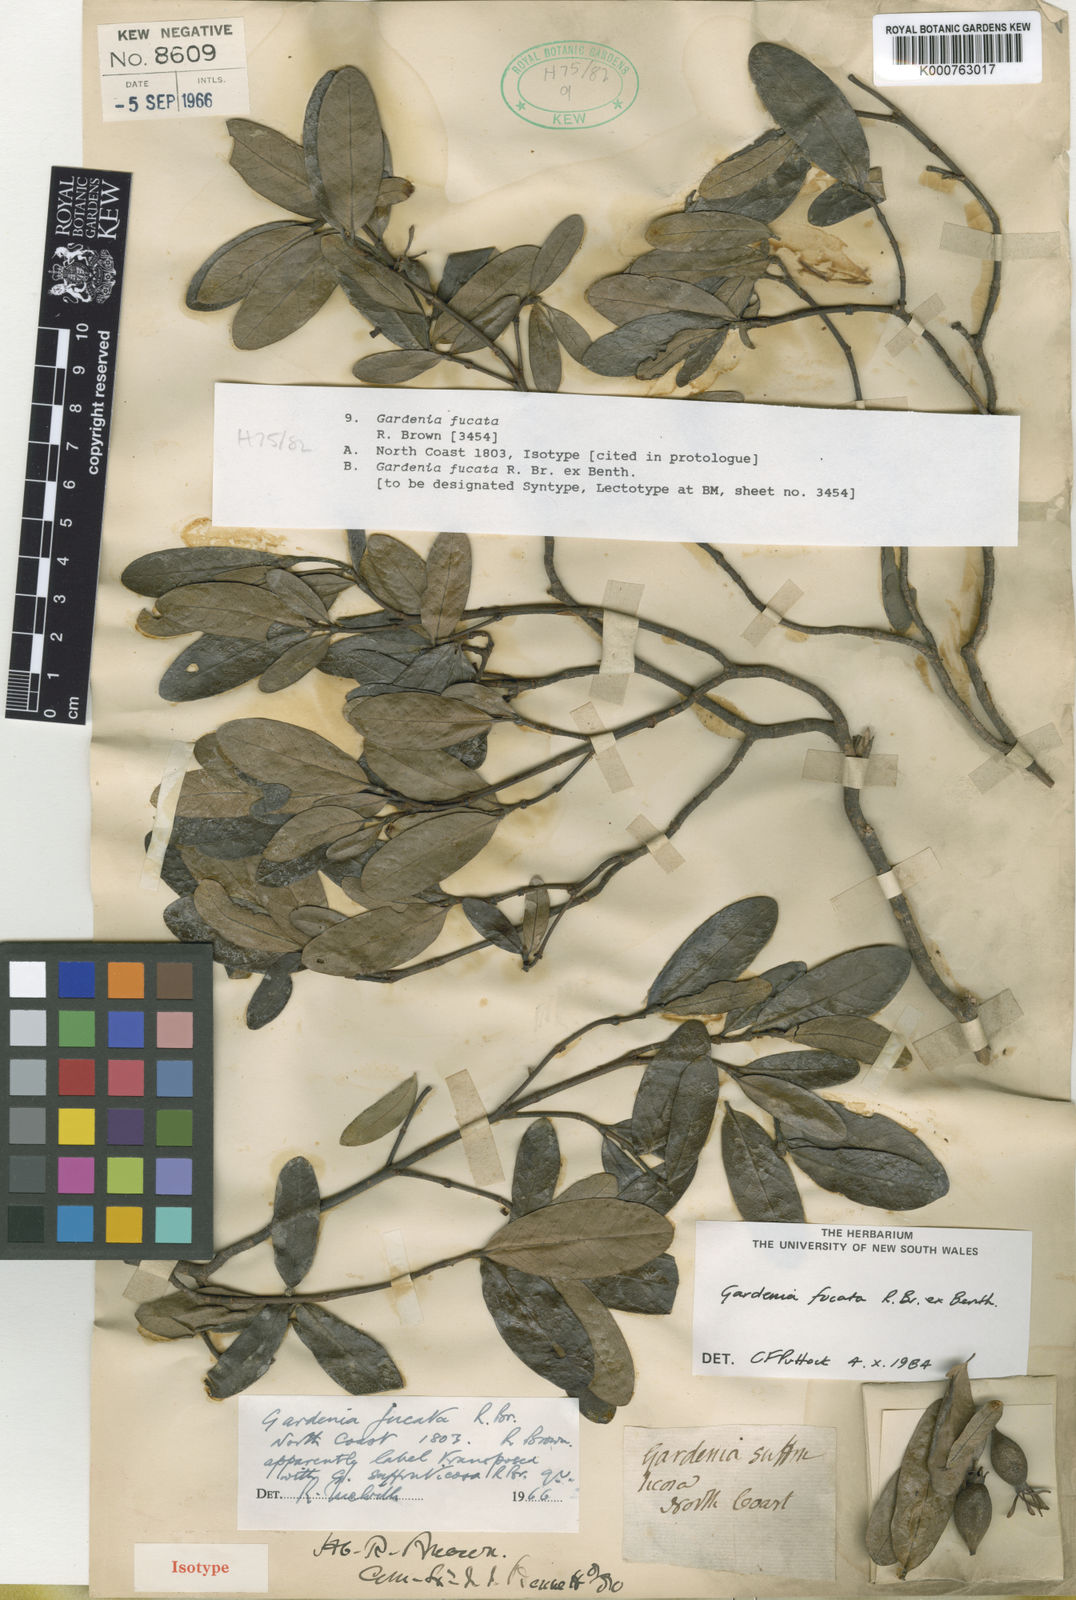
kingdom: Plantae
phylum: Tracheophyta
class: Magnoliopsida
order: Gentianales
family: Rubiaceae
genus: Gardenia
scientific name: Gardenia fucata
